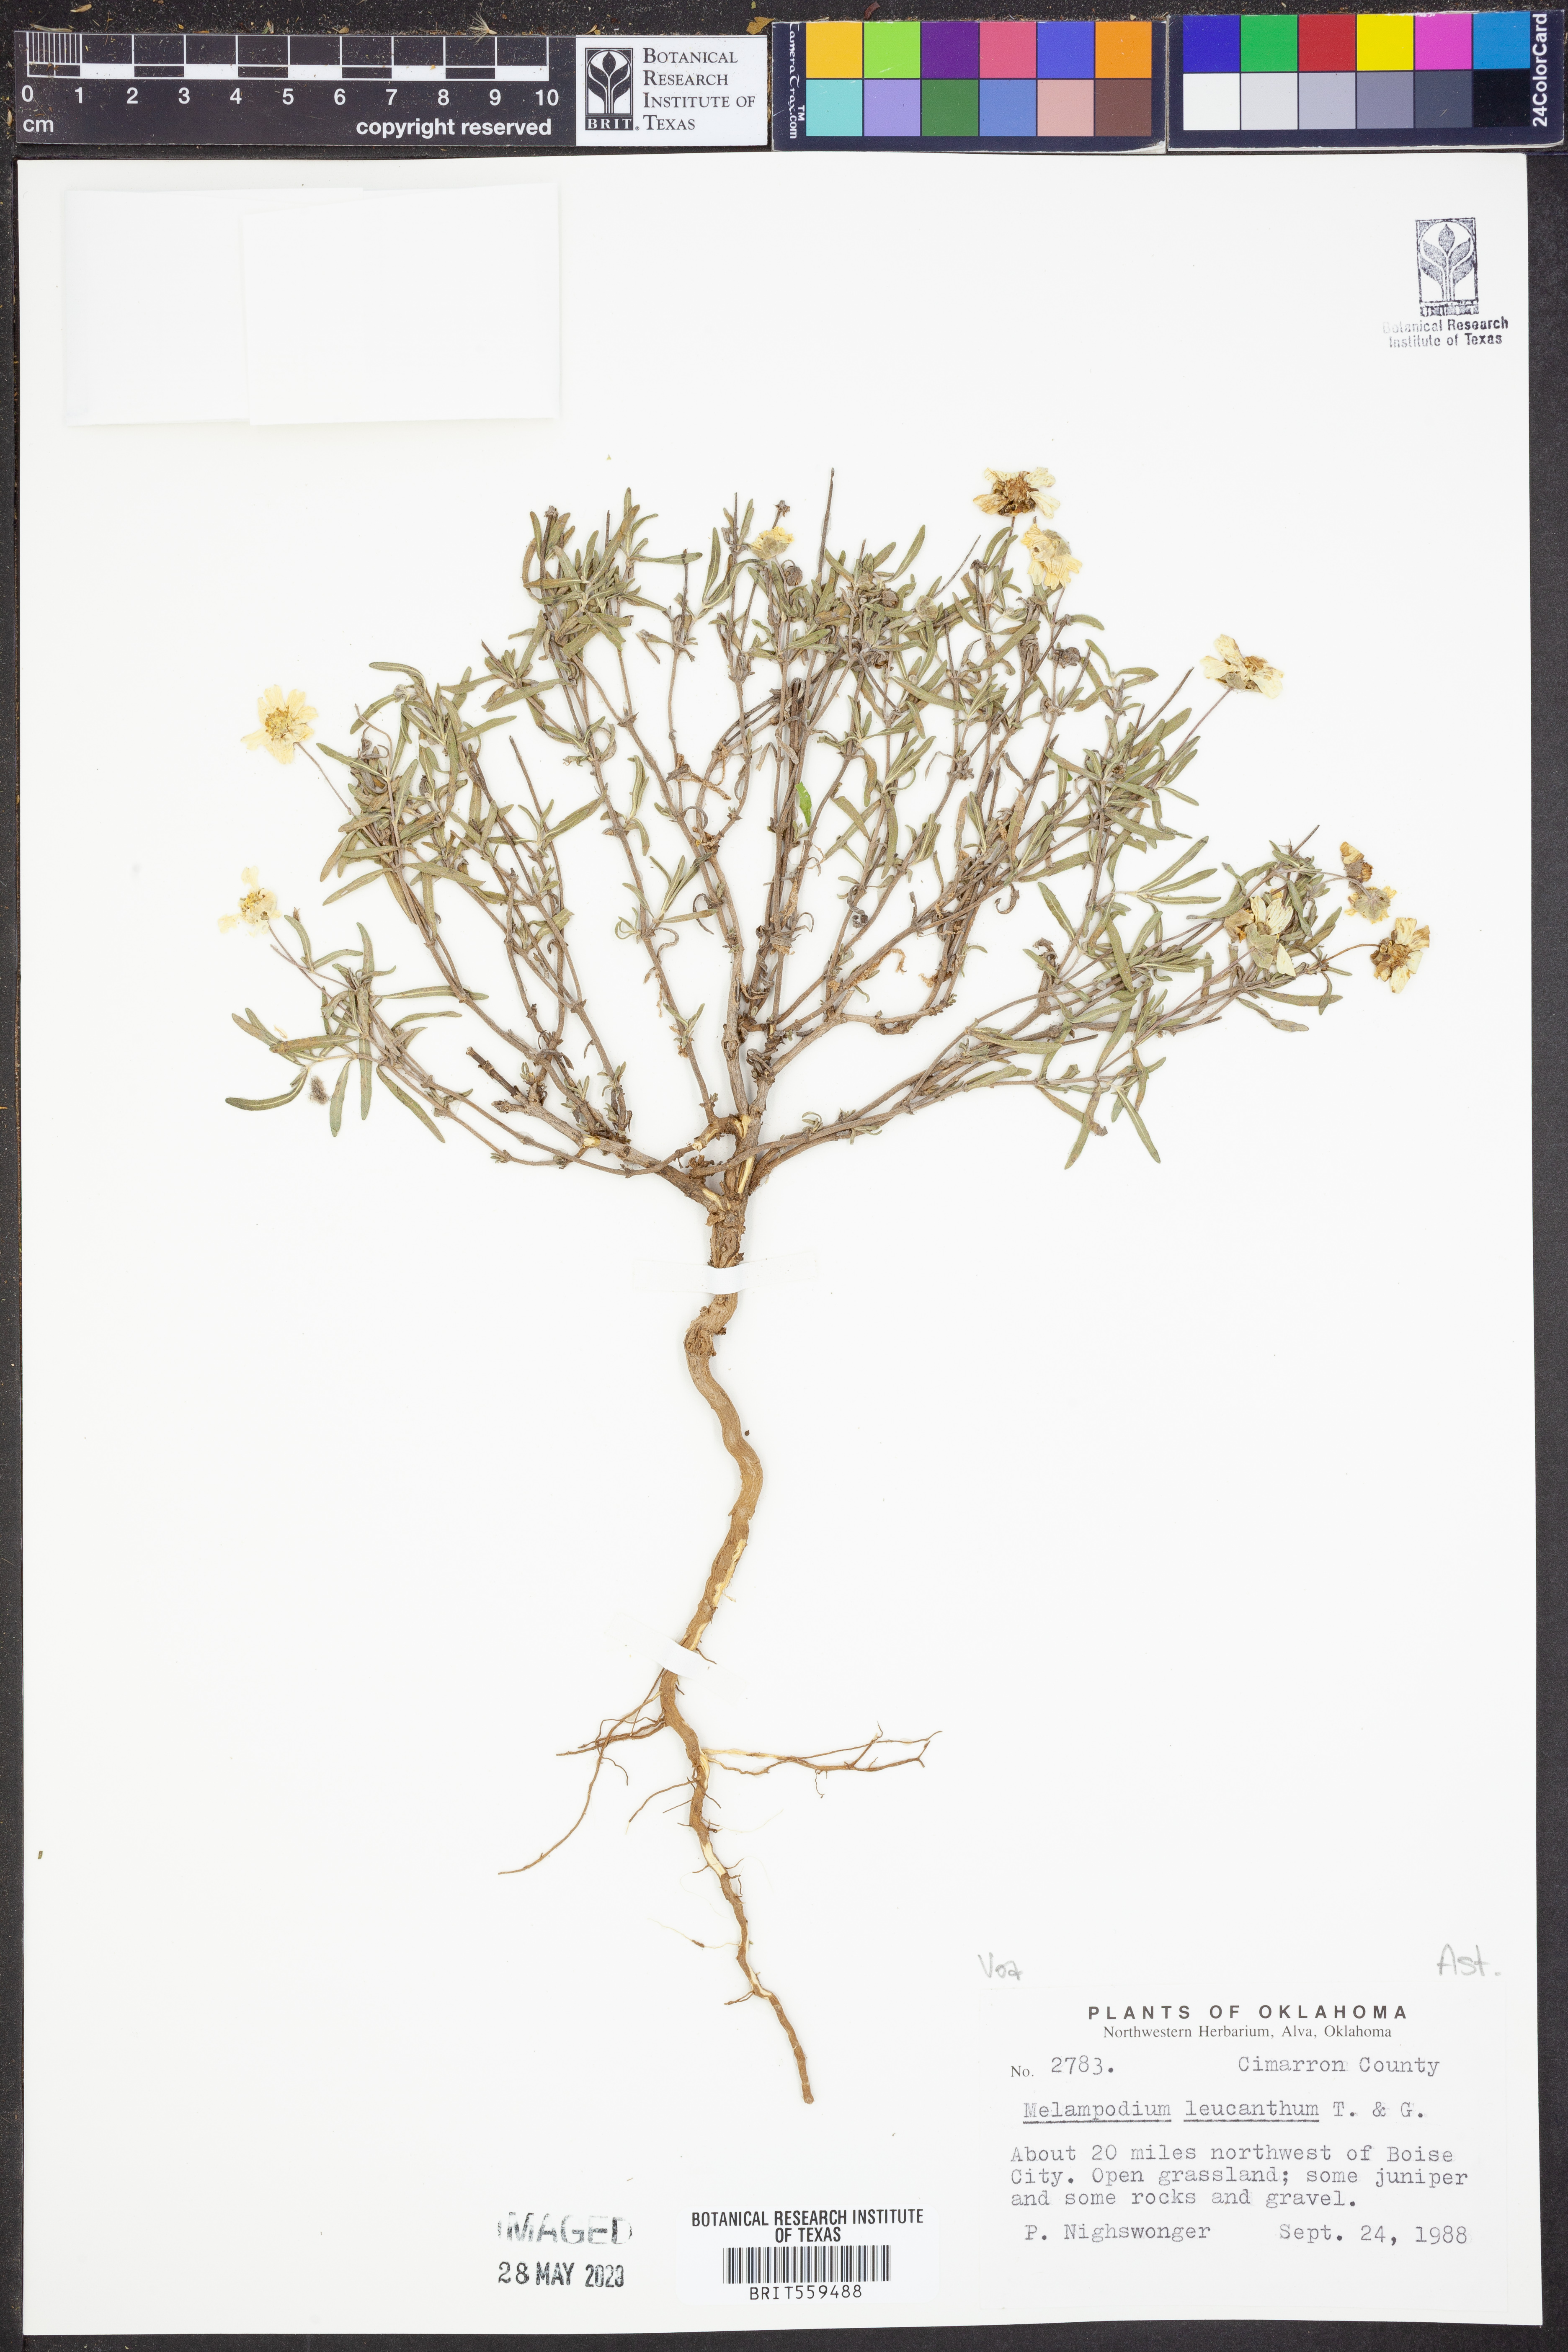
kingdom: Plantae
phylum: Tracheophyta
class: Magnoliopsida
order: Asterales
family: Asteraceae
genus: Melampodium
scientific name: Melampodium leucanthum
